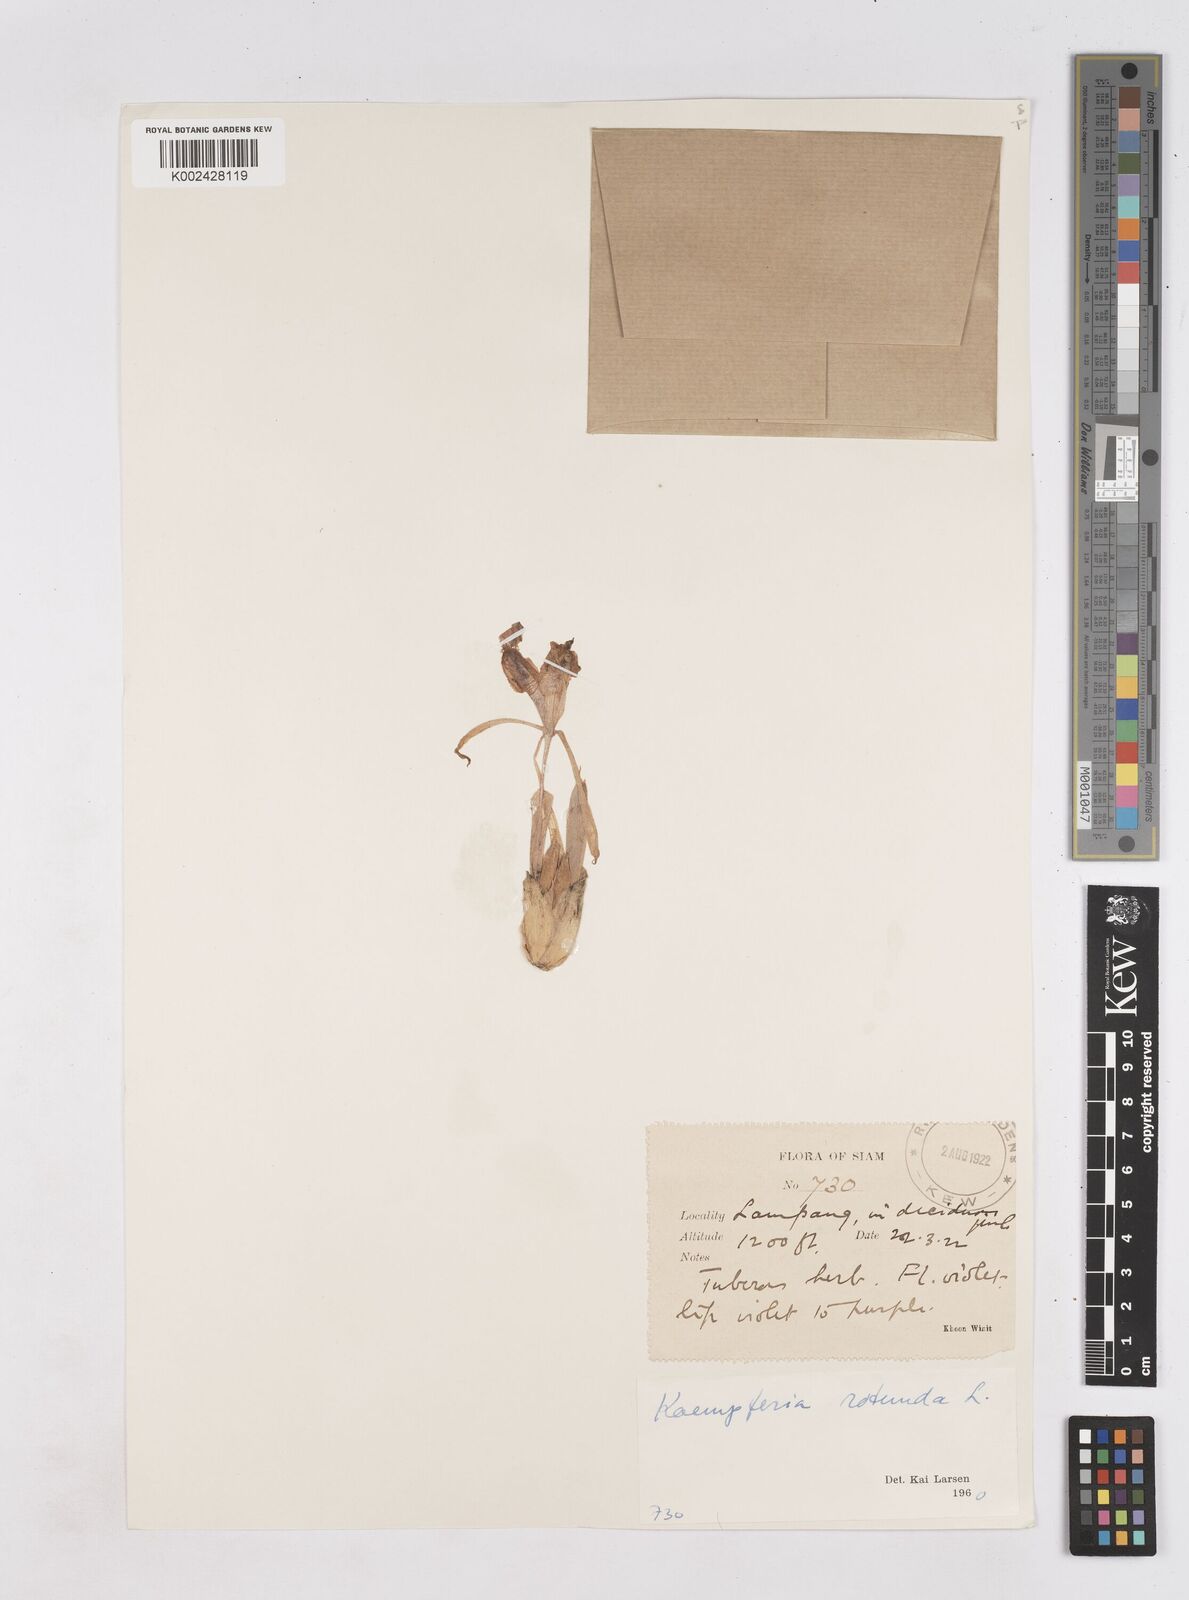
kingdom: Plantae
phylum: Tracheophyta
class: Liliopsida
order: Zingiberales
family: Zingiberaceae
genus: Kaempferia
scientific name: Kaempferia rotunda
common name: Tropical-crocus
